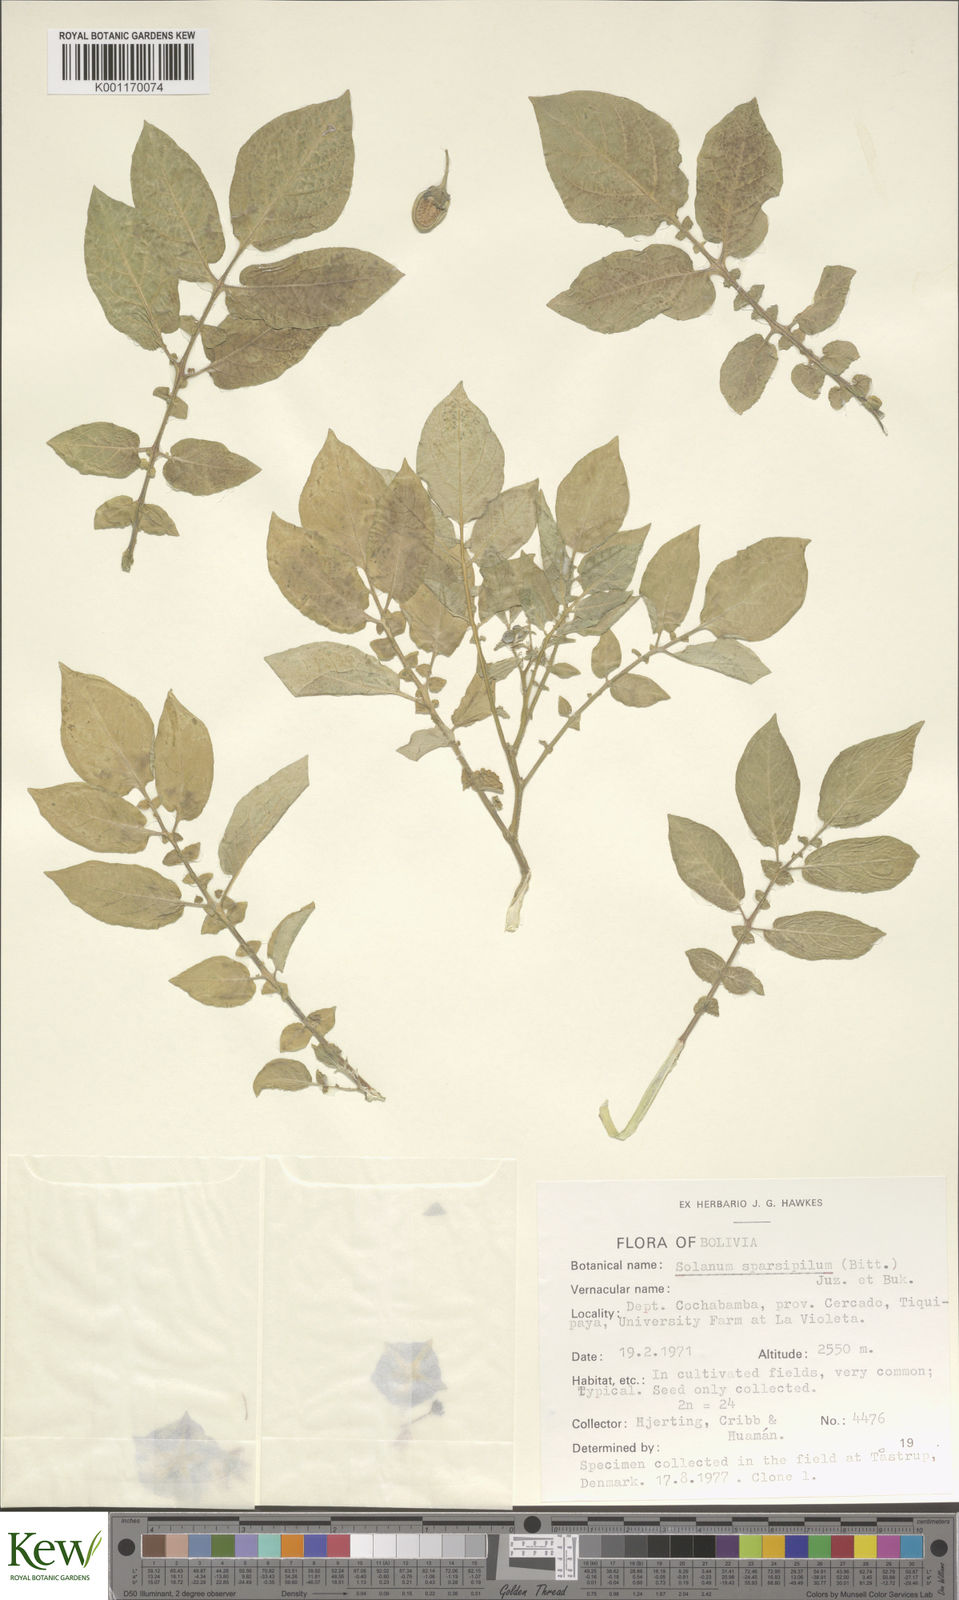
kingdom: Plantae
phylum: Tracheophyta
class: Magnoliopsida
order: Solanales
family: Solanaceae
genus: Solanum
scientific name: Solanum brevicaule
